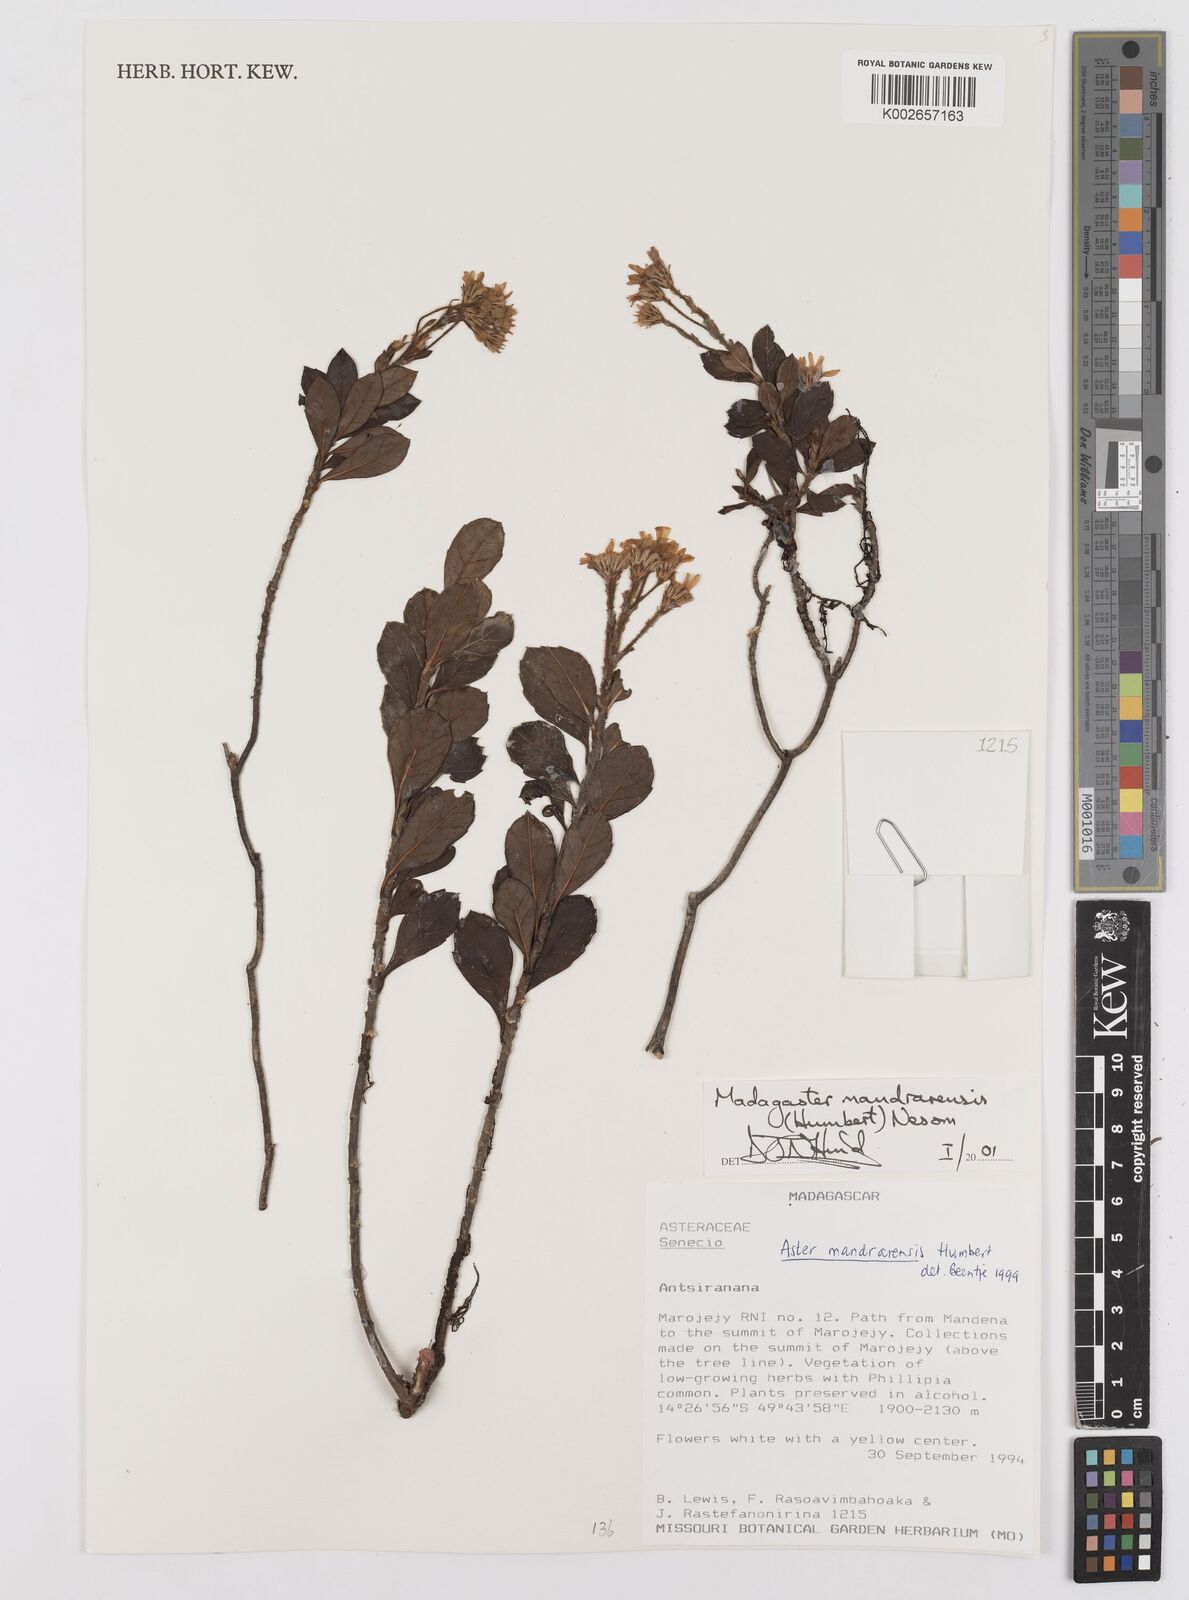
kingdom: Plantae
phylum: Tracheophyta
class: Magnoliopsida
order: Asterales
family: Asteraceae
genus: Madagaster
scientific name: Madagaster mandrarensis
